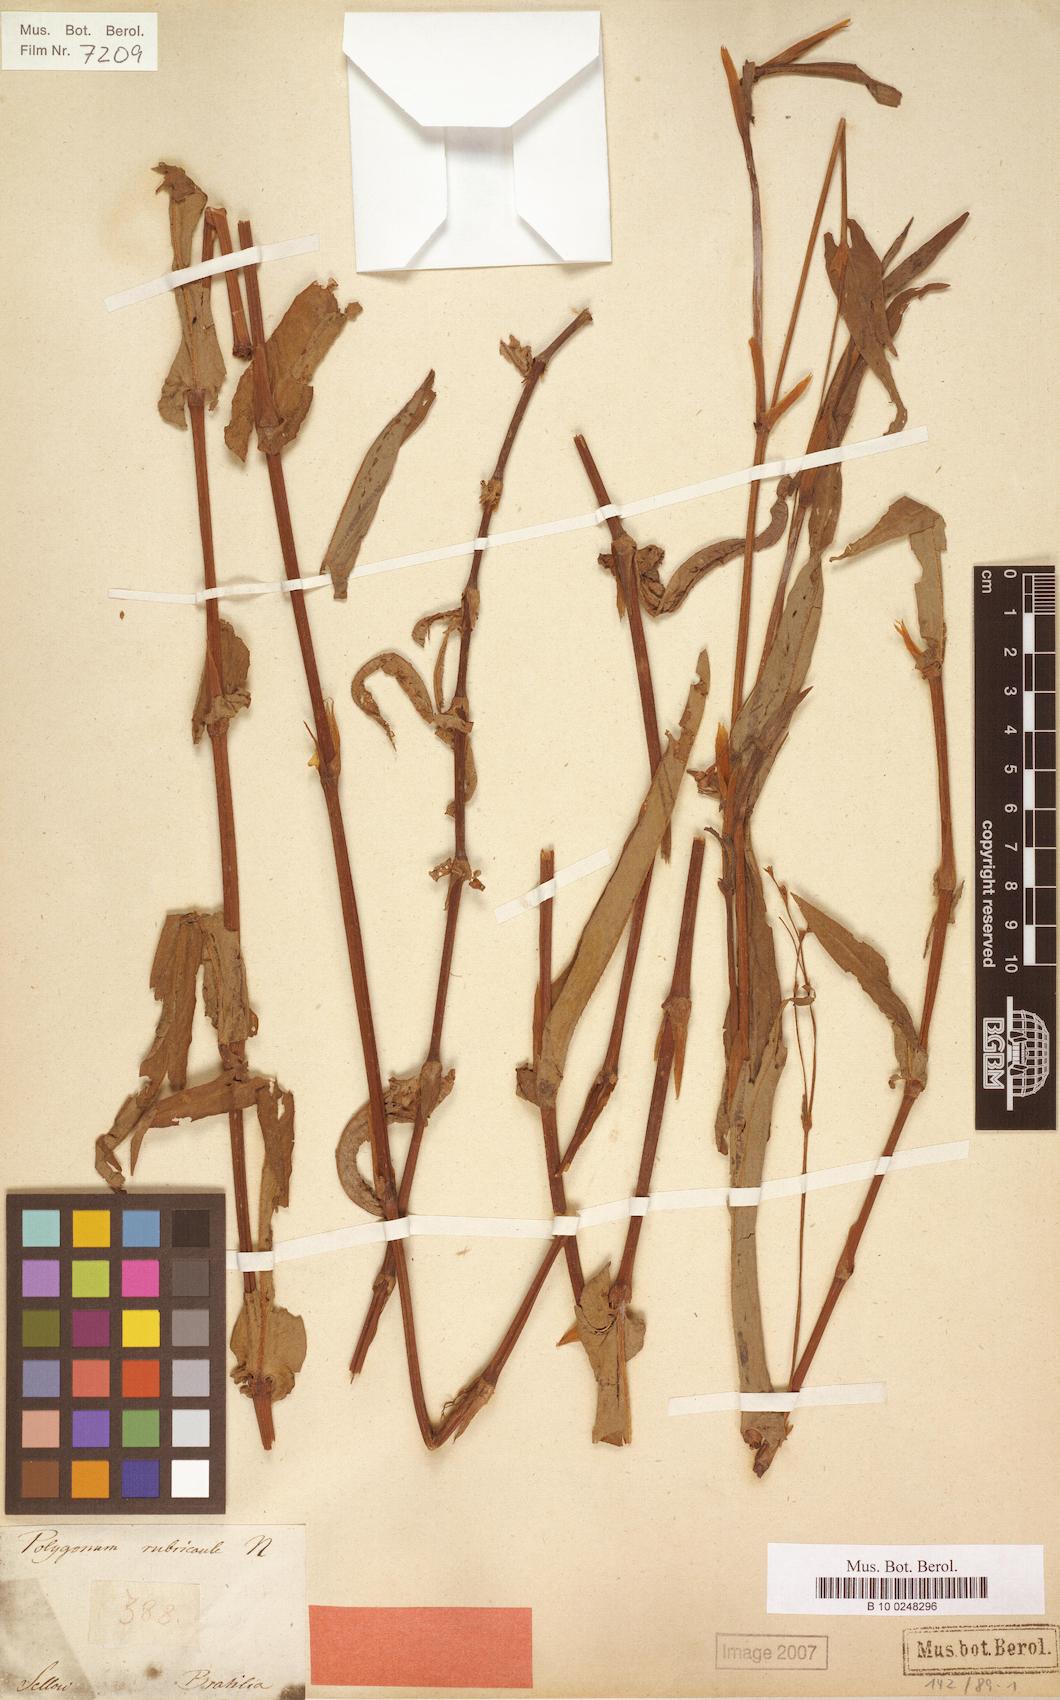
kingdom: Plantae
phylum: Tracheophyta
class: Magnoliopsida
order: Caryophyllales
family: Polygonaceae
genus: Persicaria
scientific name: Persicaria rubricaulis
